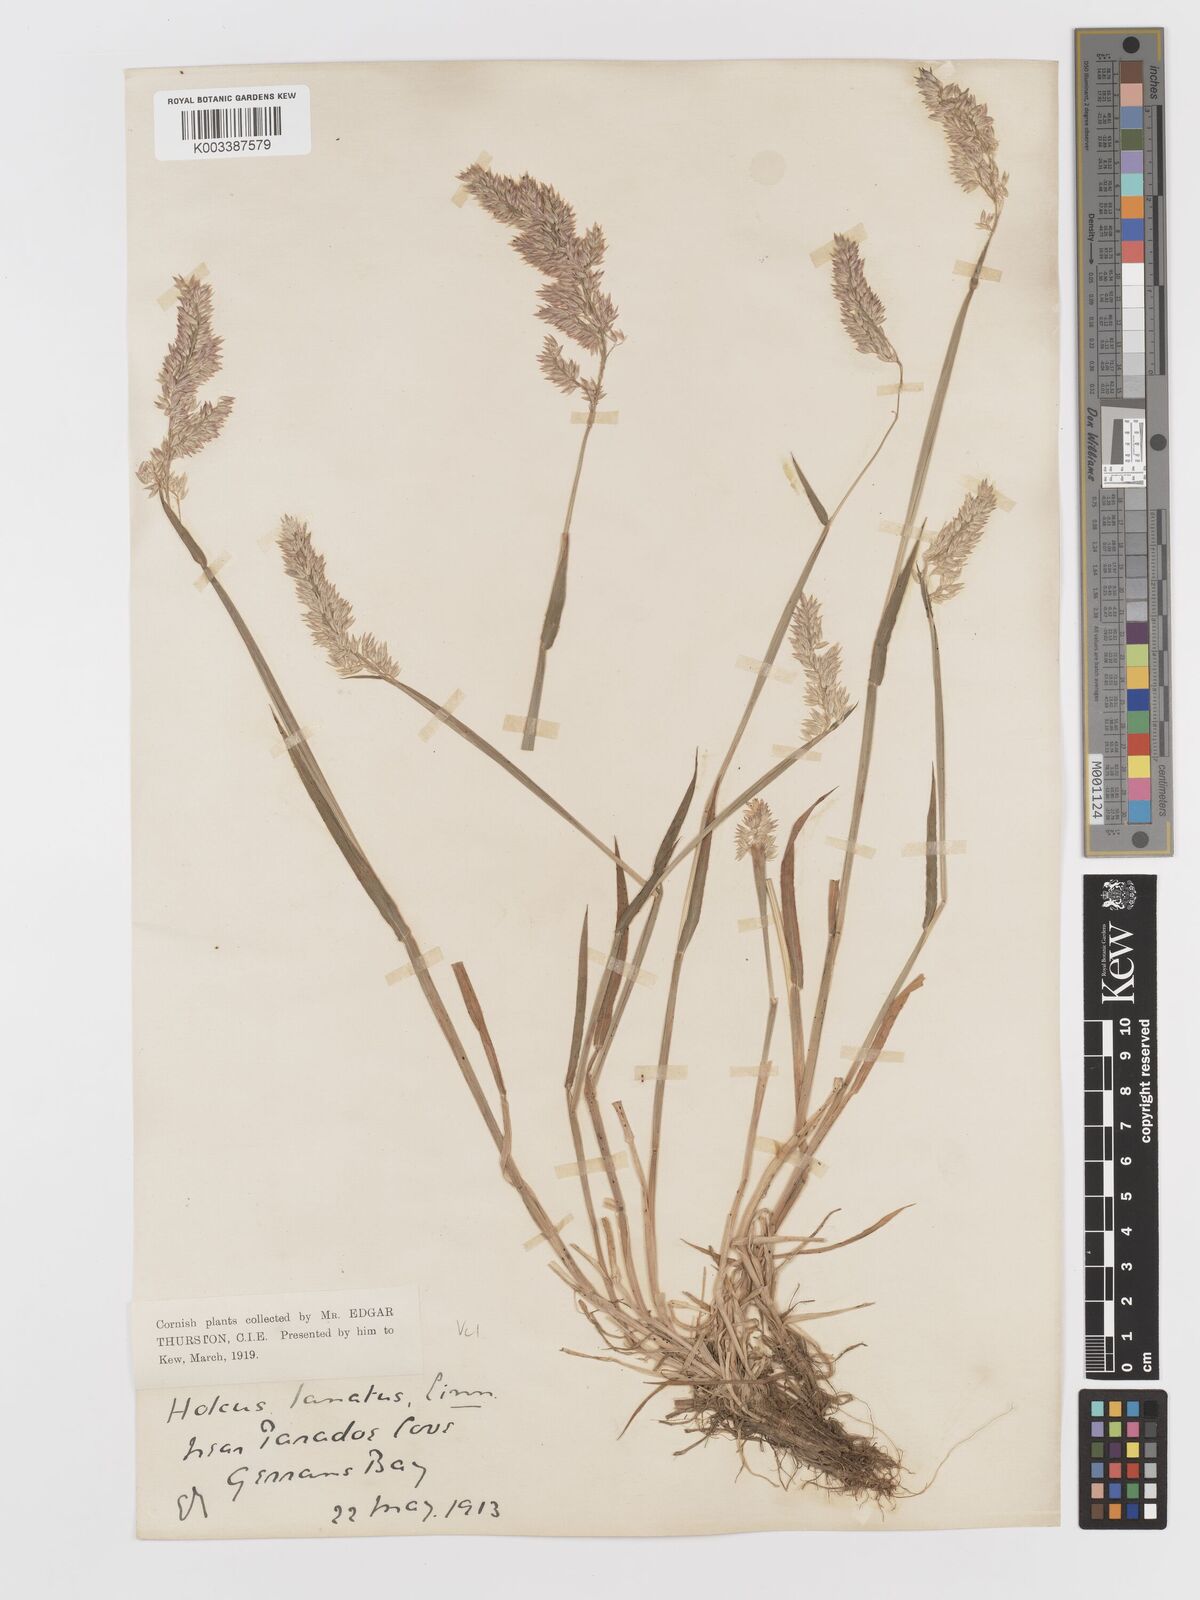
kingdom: Plantae
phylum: Tracheophyta
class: Liliopsida
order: Poales
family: Poaceae
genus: Holcus
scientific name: Holcus lanatus
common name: Yorkshire-fog
